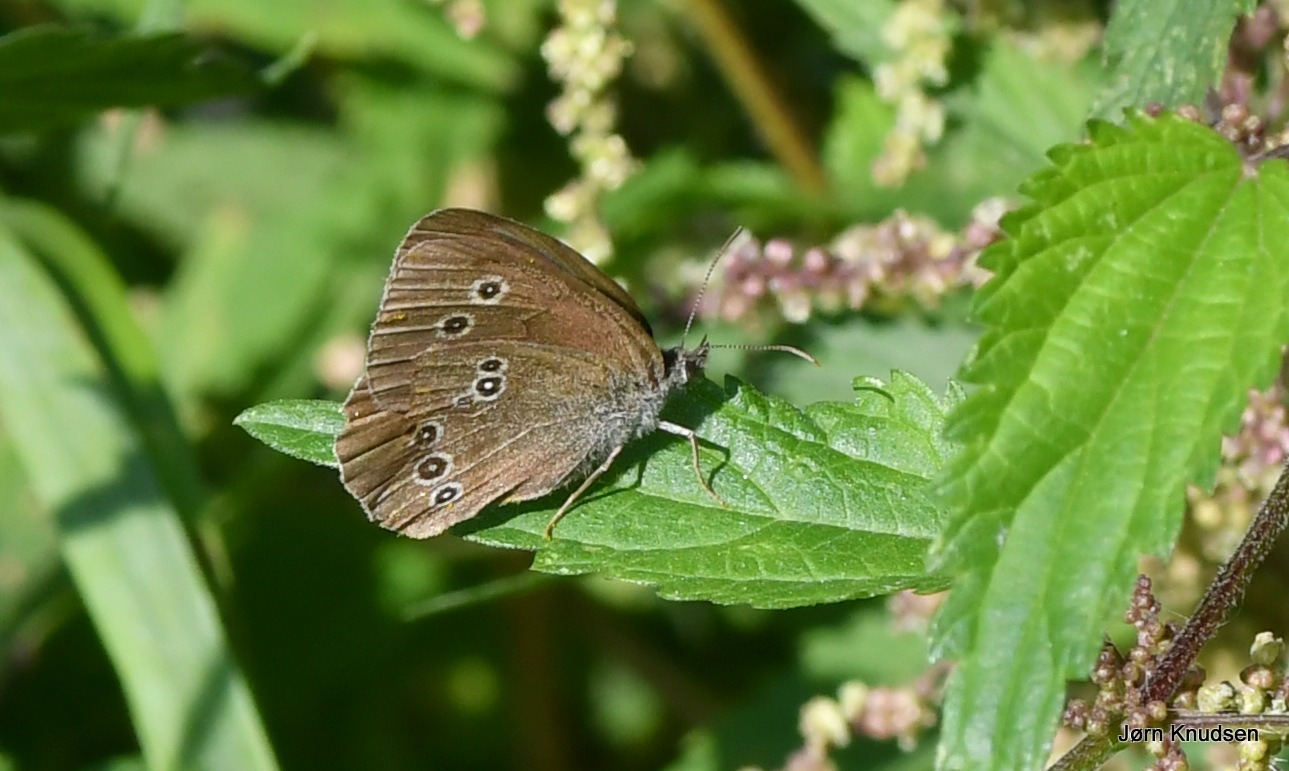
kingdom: Animalia
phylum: Arthropoda
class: Insecta
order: Lepidoptera
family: Nymphalidae
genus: Aphantopus
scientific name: Aphantopus hyperantus
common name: Engrandøje
